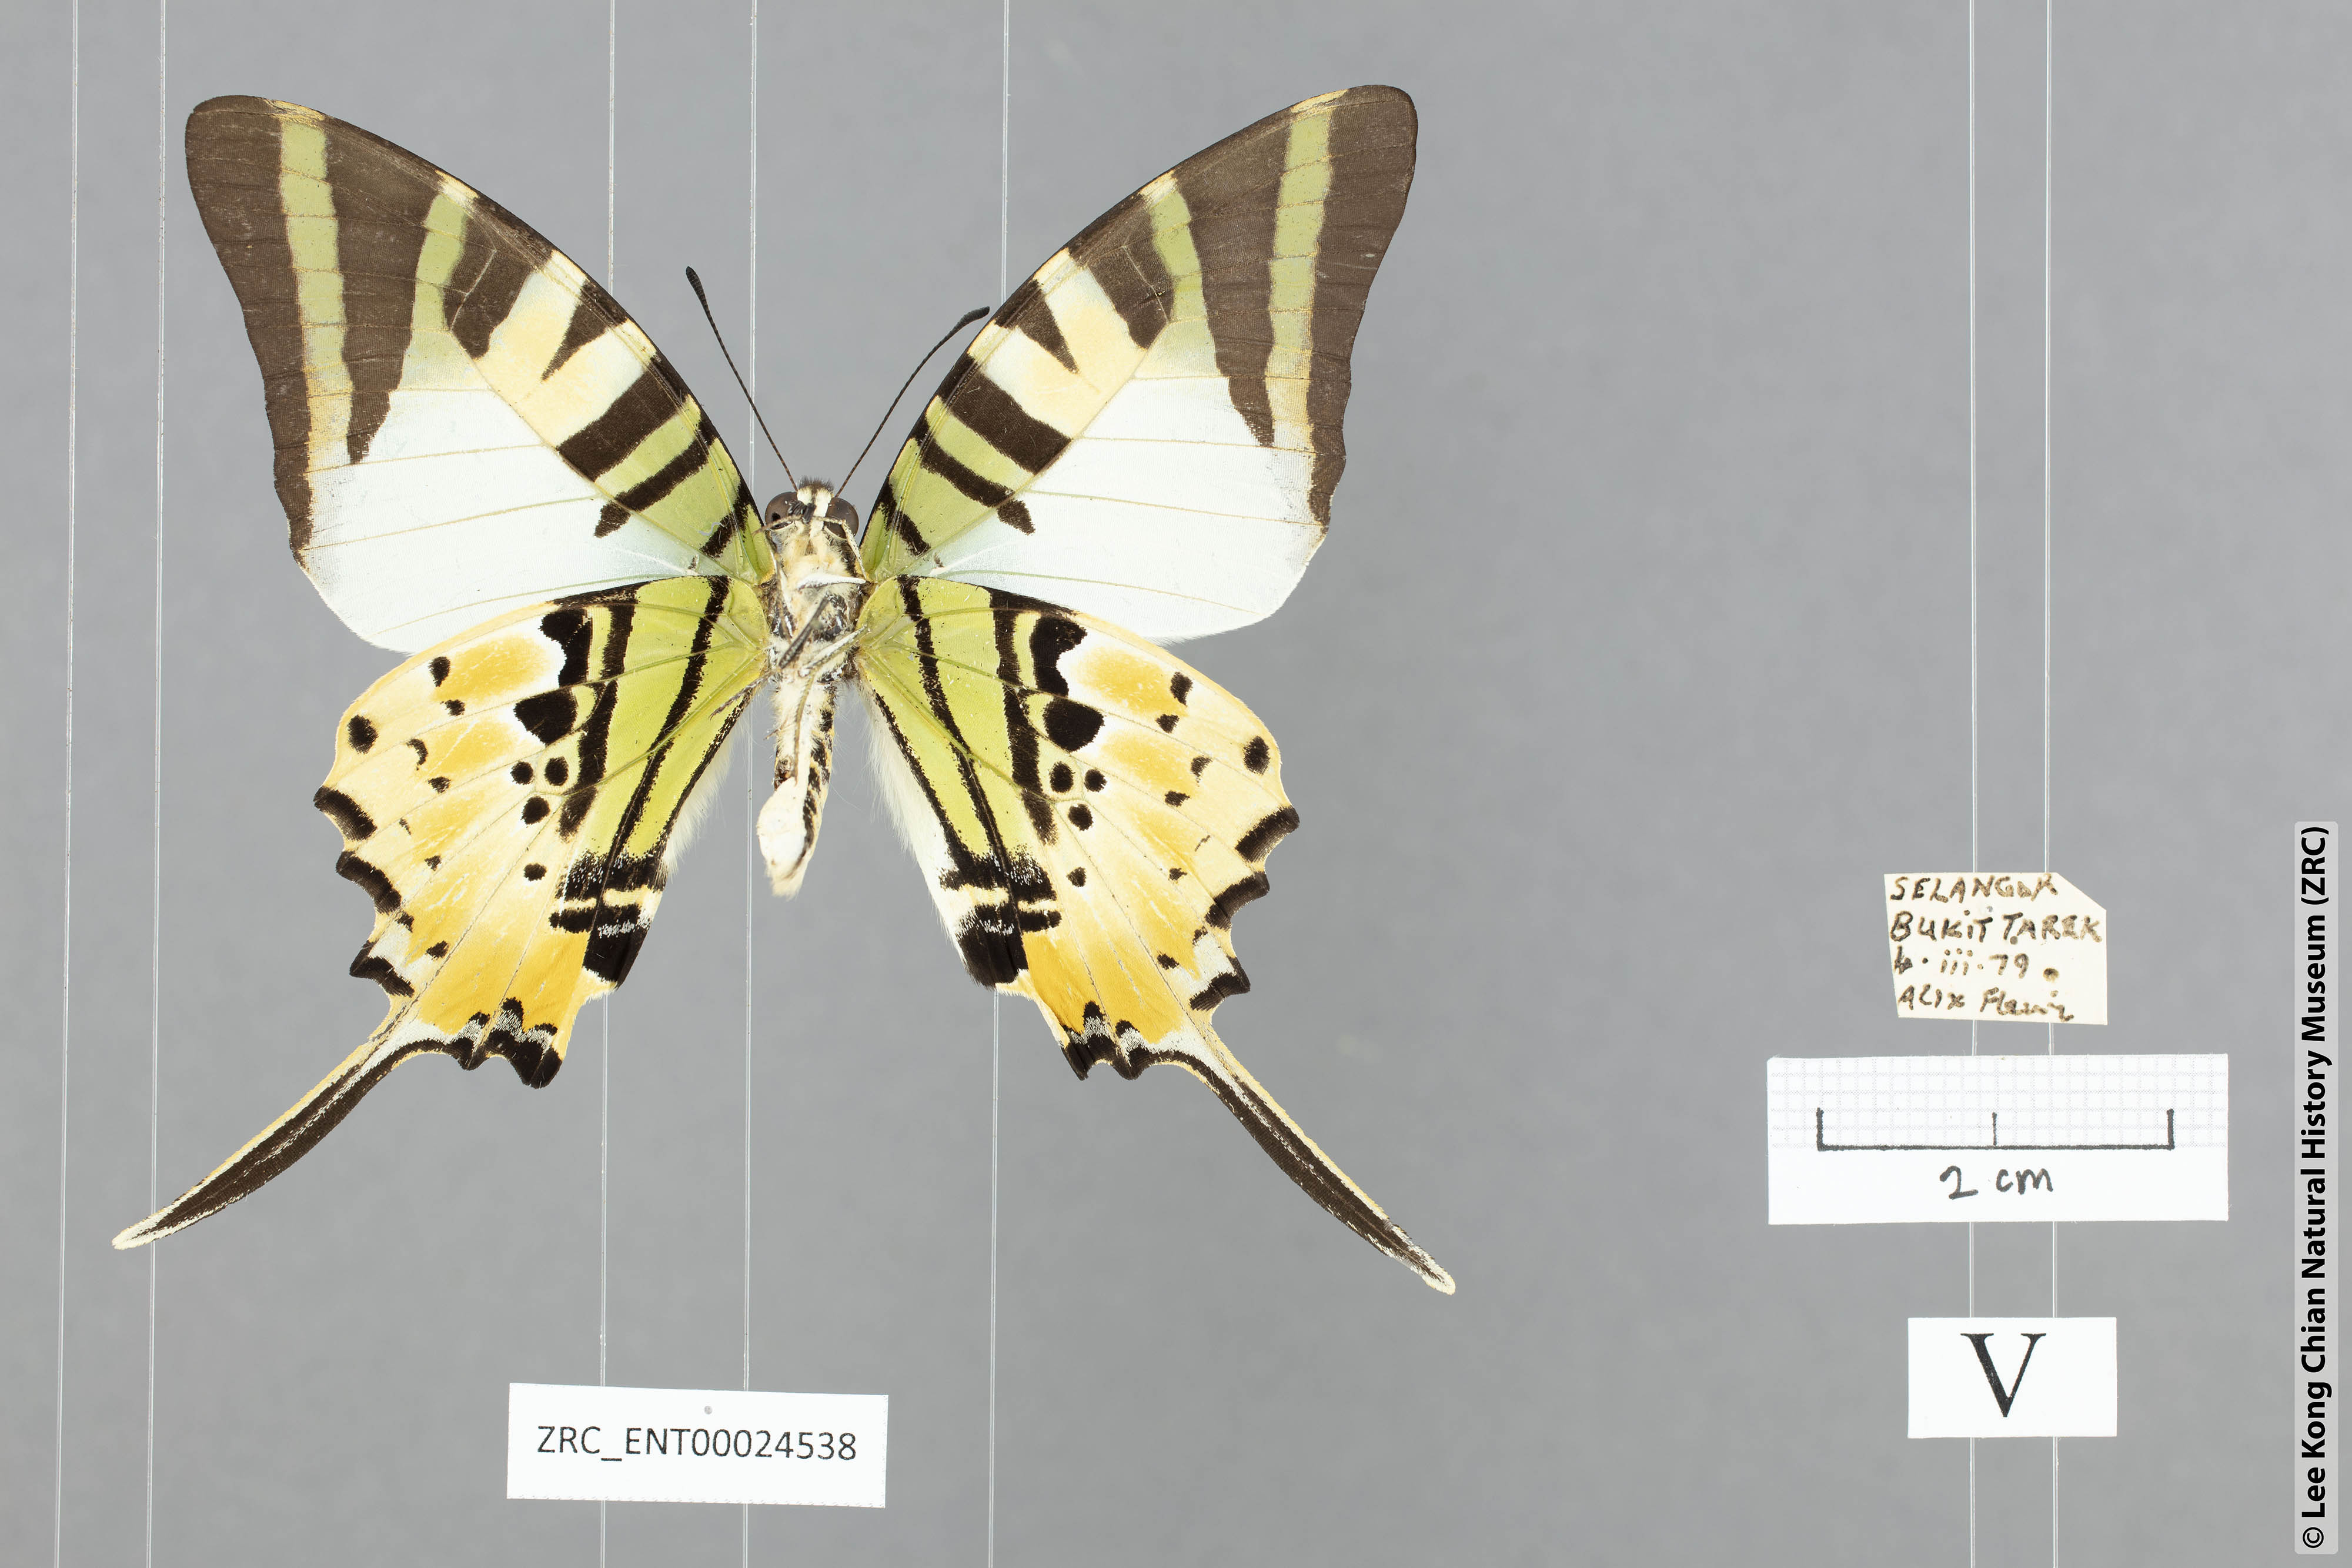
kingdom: Animalia
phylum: Arthropoda
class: Insecta
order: Lepidoptera
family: Papilionidae
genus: Graphium
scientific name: Graphium antiphates
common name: Fivebar swordtail
